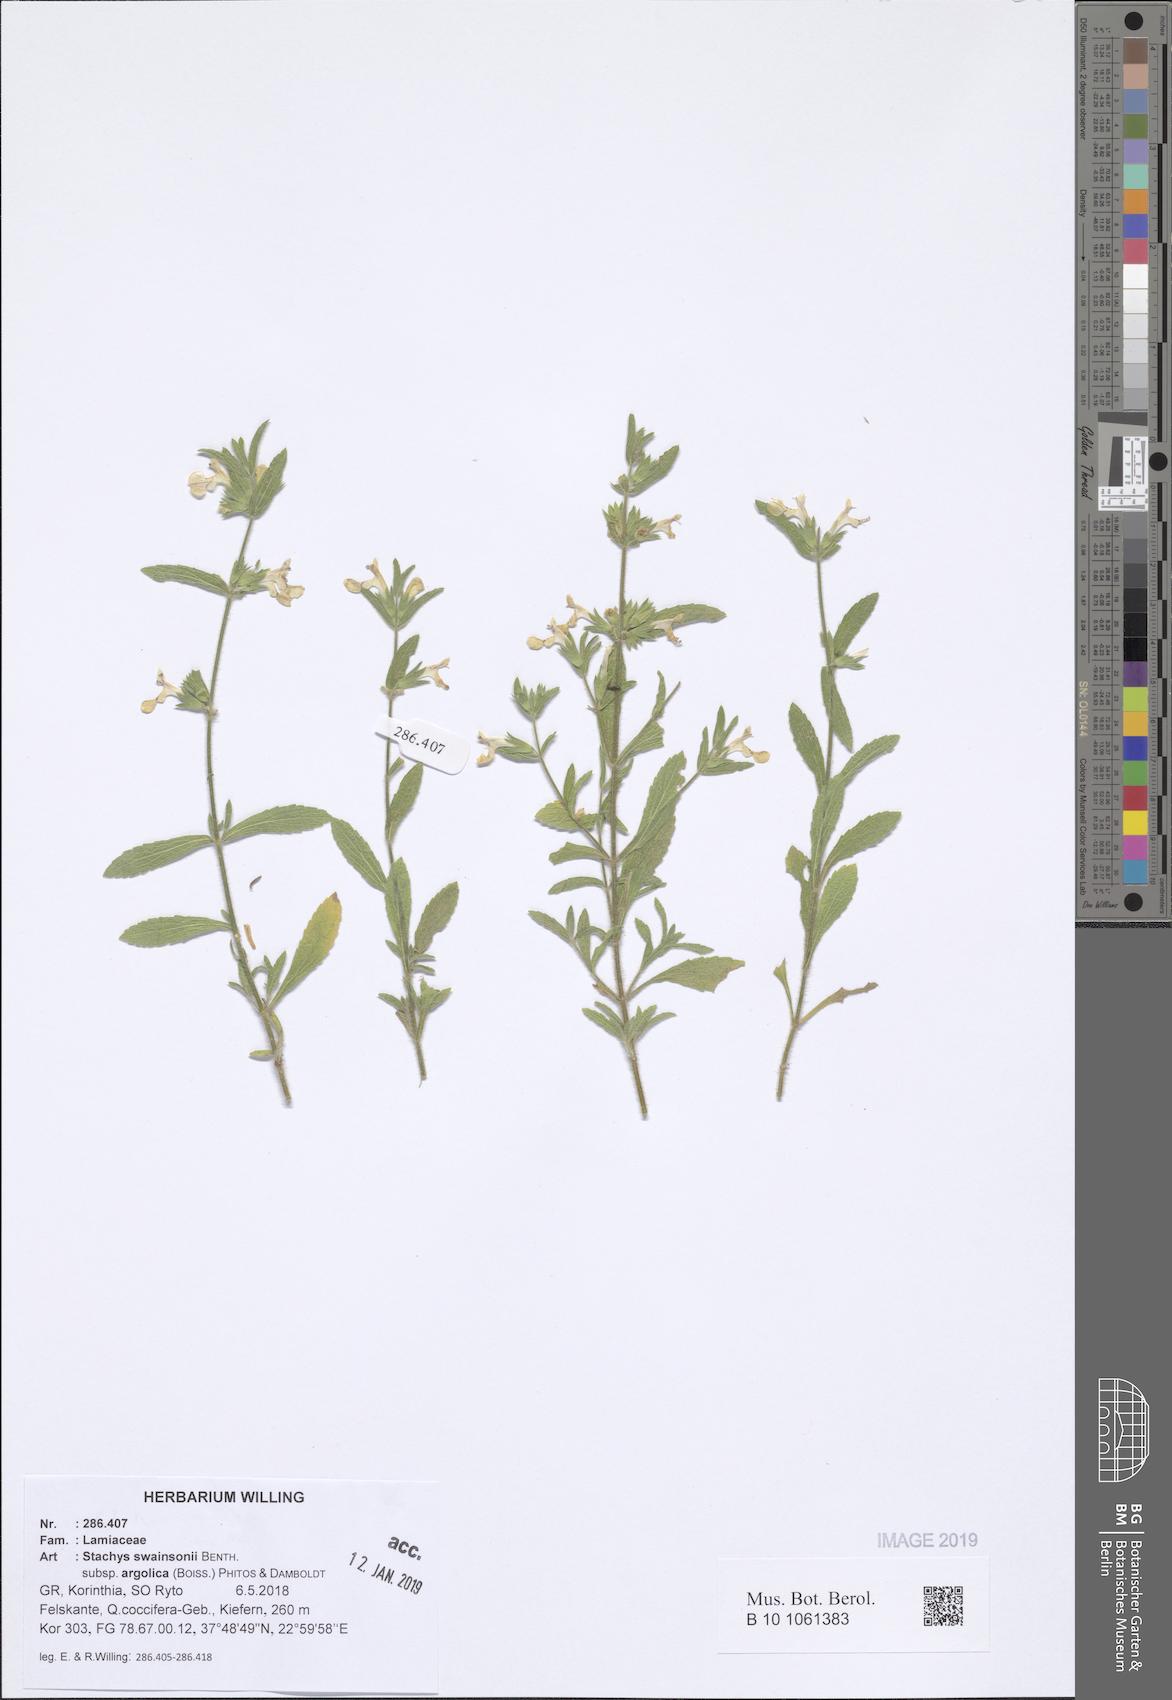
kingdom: Plantae
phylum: Tracheophyta
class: Magnoliopsida
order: Lamiales
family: Lamiaceae
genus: Stachys
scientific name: Stachys swainsonii
